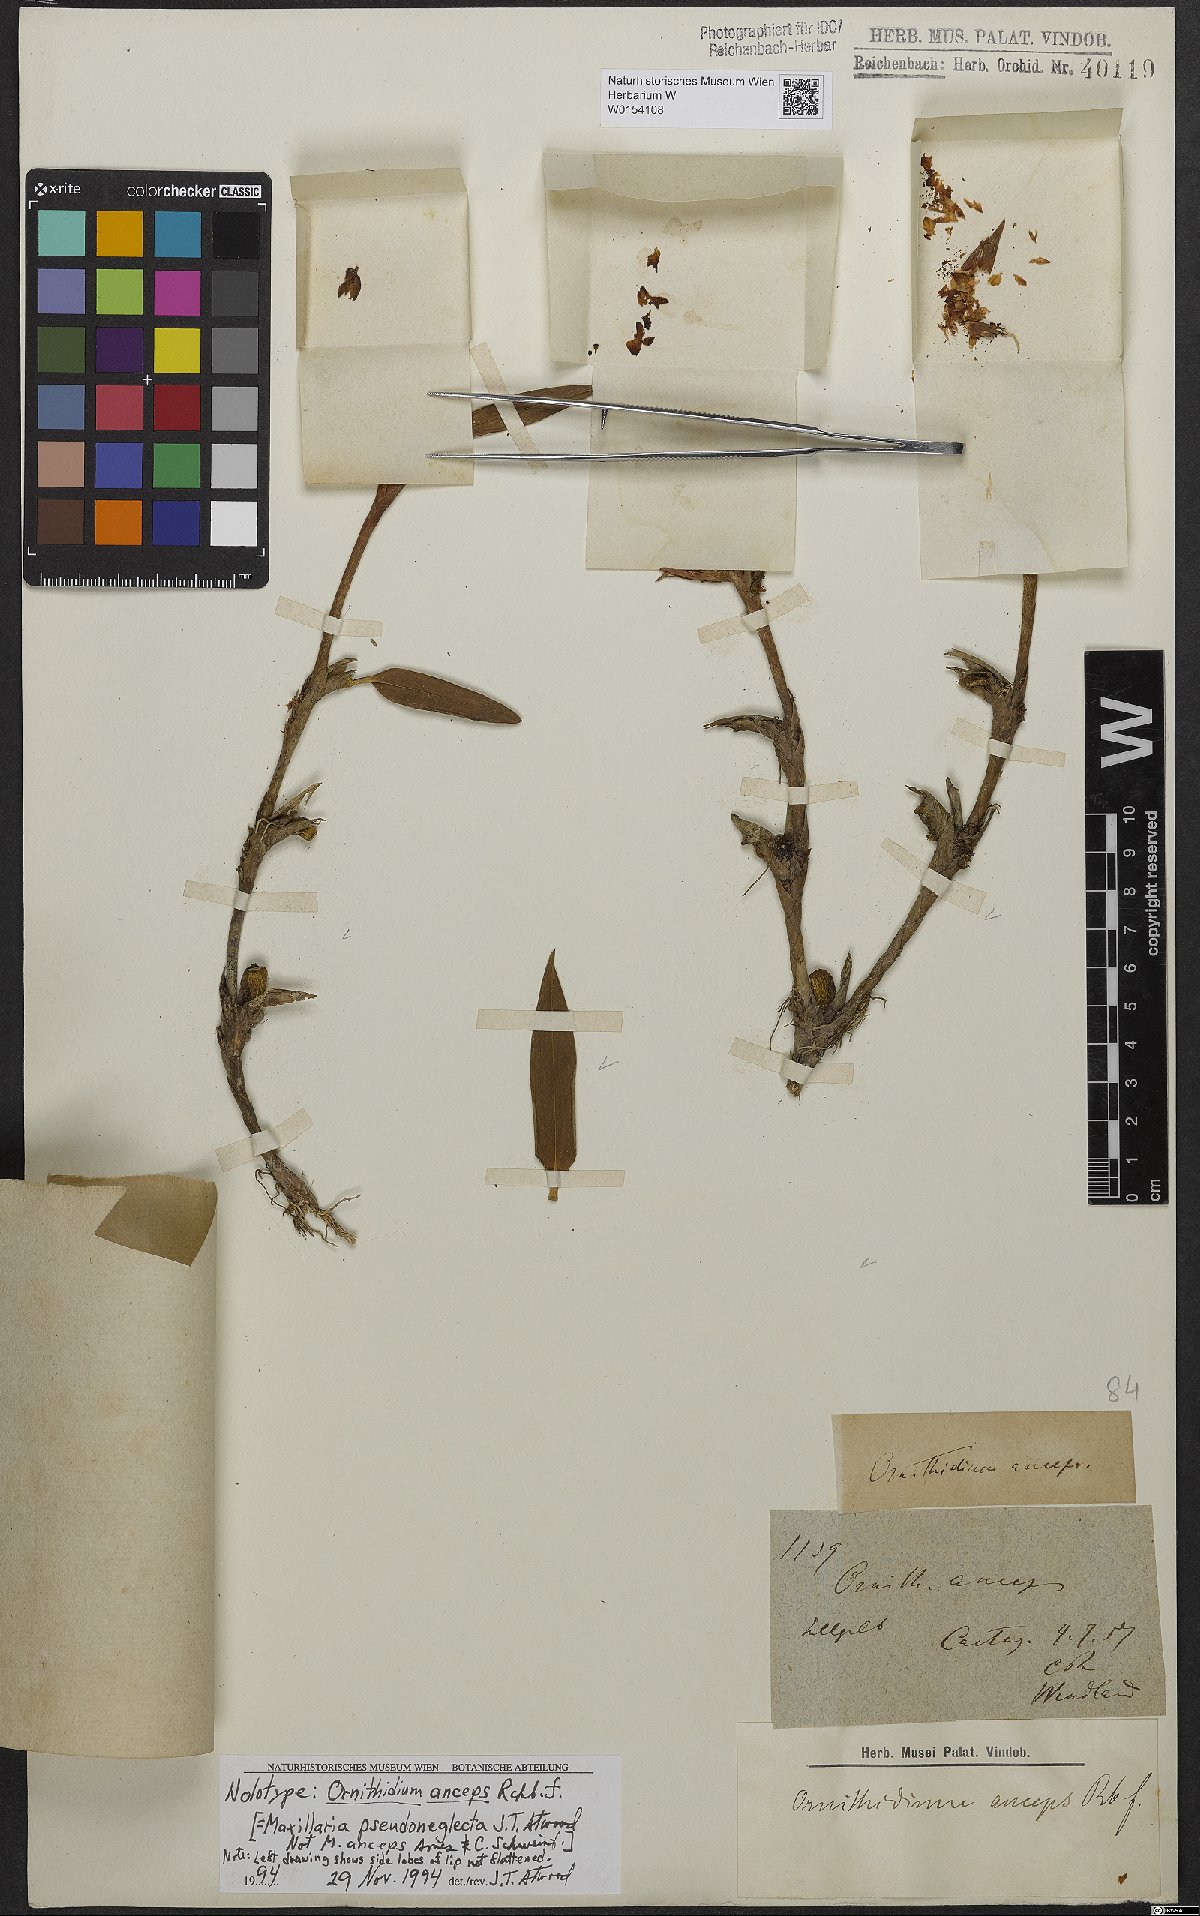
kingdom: Plantae
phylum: Tracheophyta
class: Liliopsida
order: Asparagales
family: Orchidaceae
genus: Maxillaria
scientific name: Maxillaria pseudoneglecta
